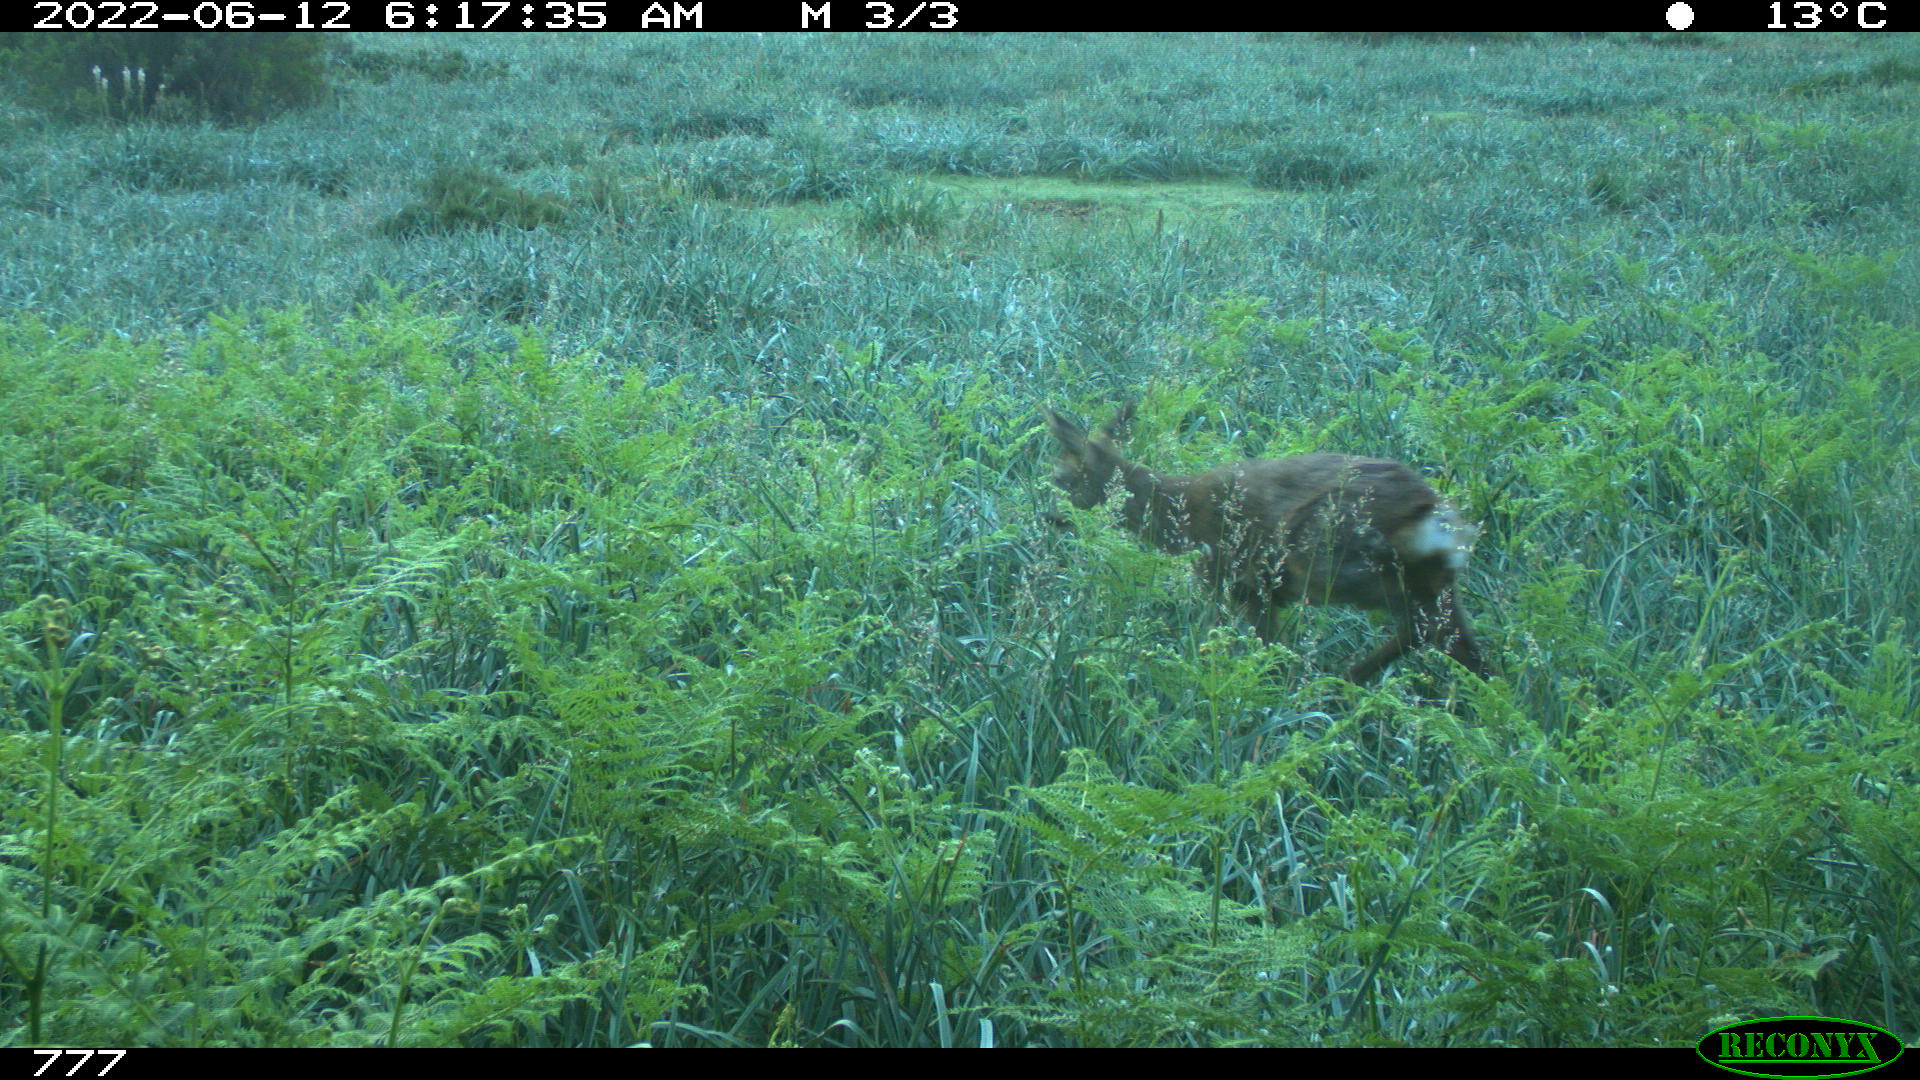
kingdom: Animalia
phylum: Chordata
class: Mammalia
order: Artiodactyla
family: Cervidae
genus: Capreolus
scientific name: Capreolus capreolus
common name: Western roe deer
